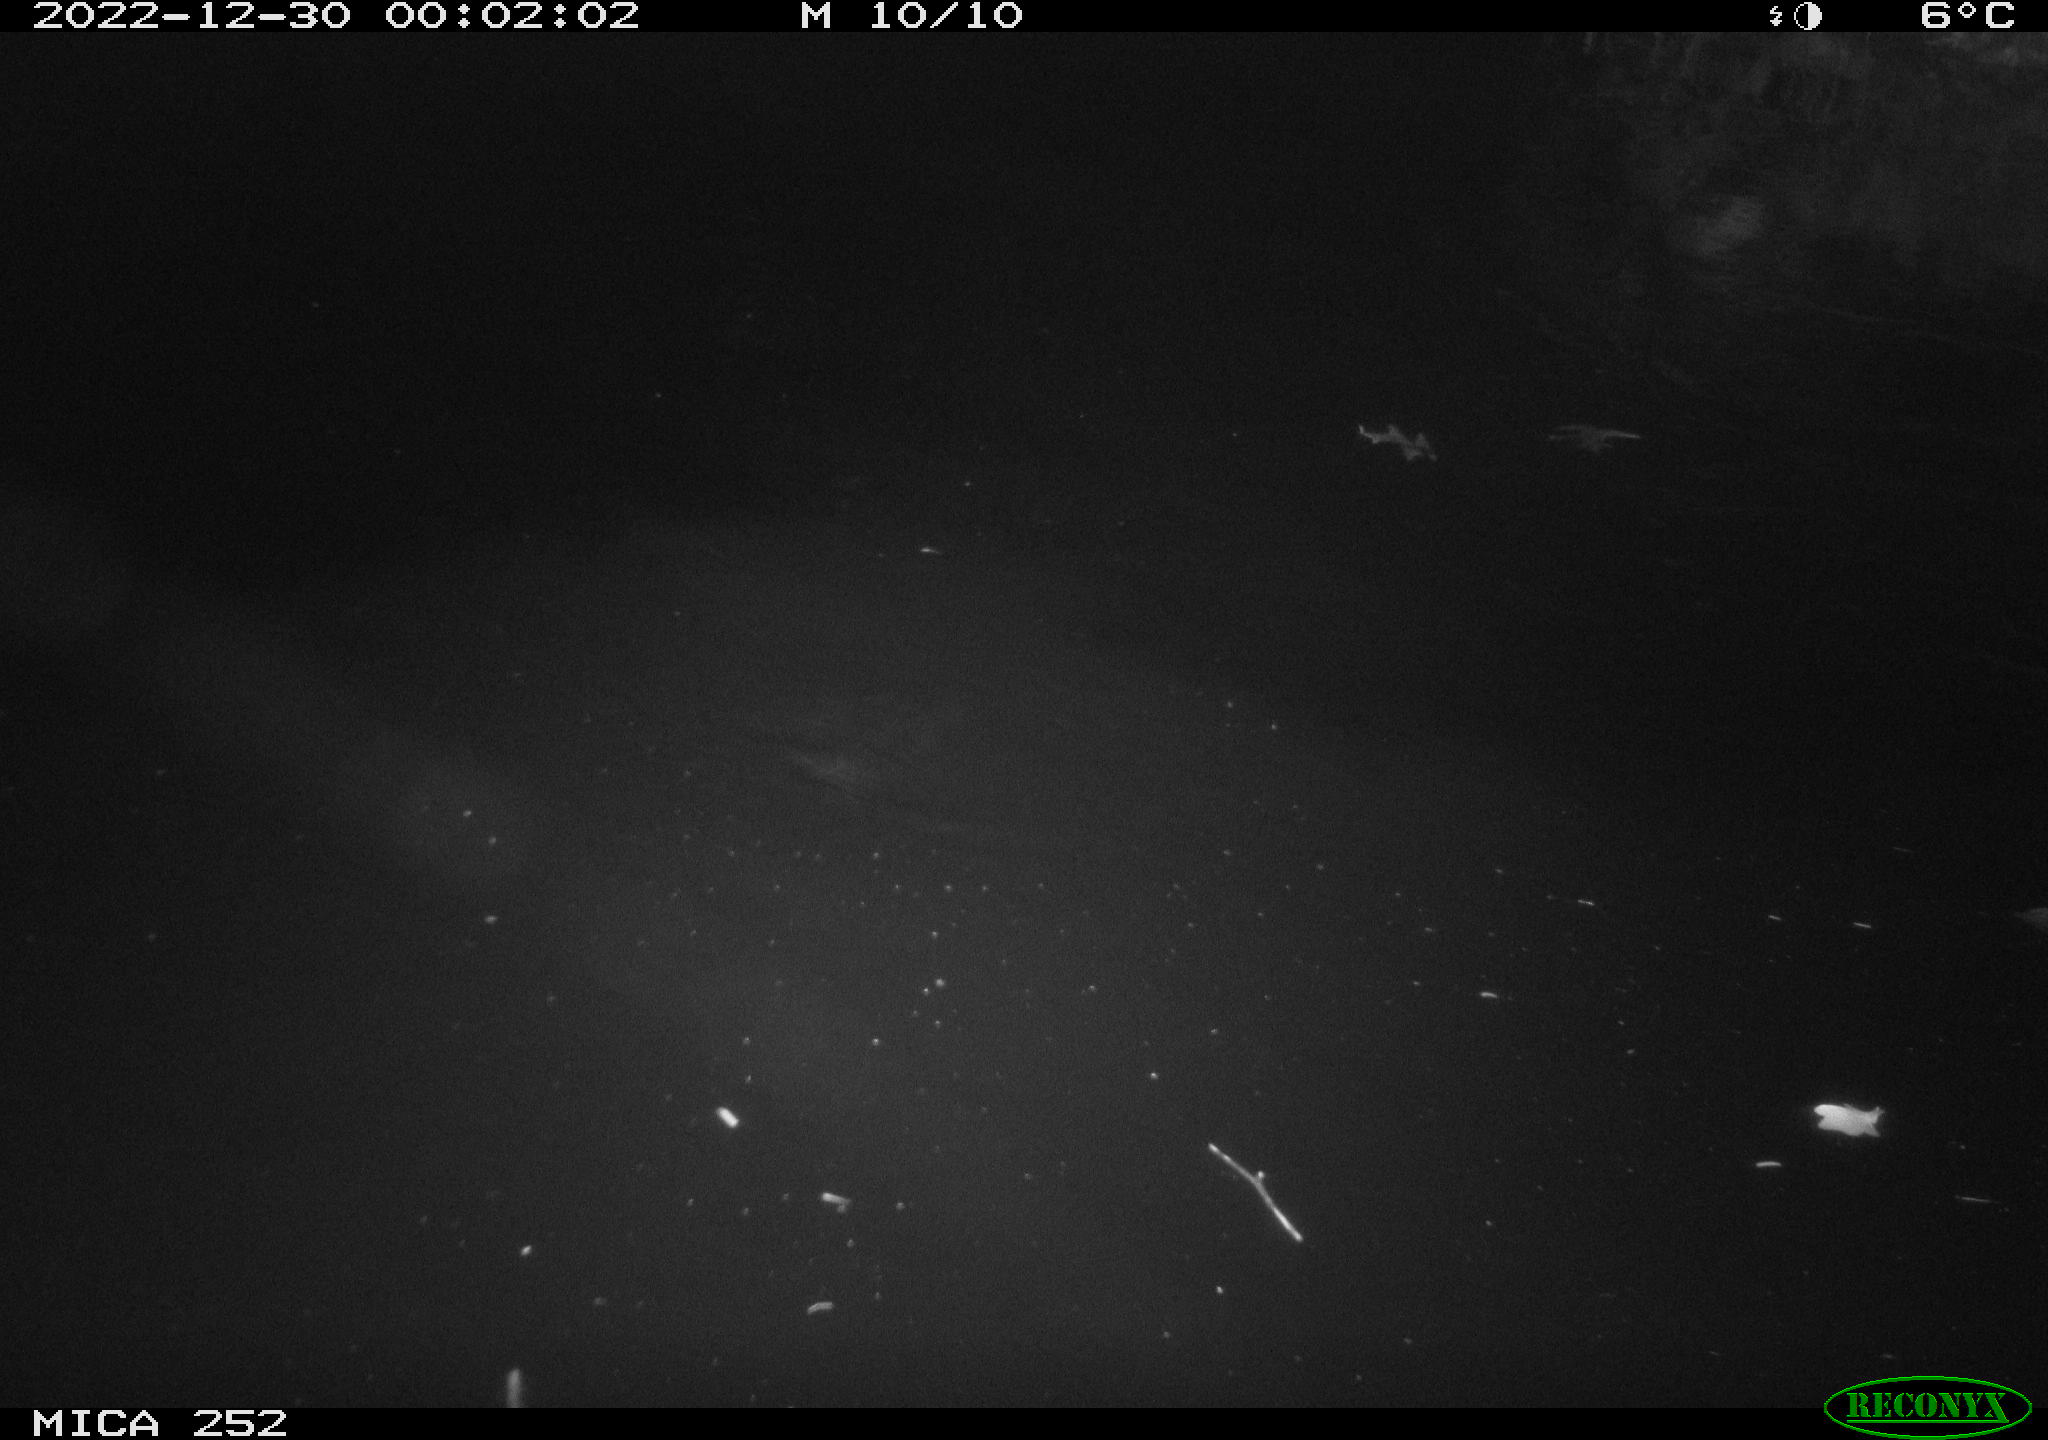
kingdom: Animalia
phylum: Chordata
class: Mammalia
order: Rodentia
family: Castoridae
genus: Castor
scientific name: Castor fiber
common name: Eurasian beaver
